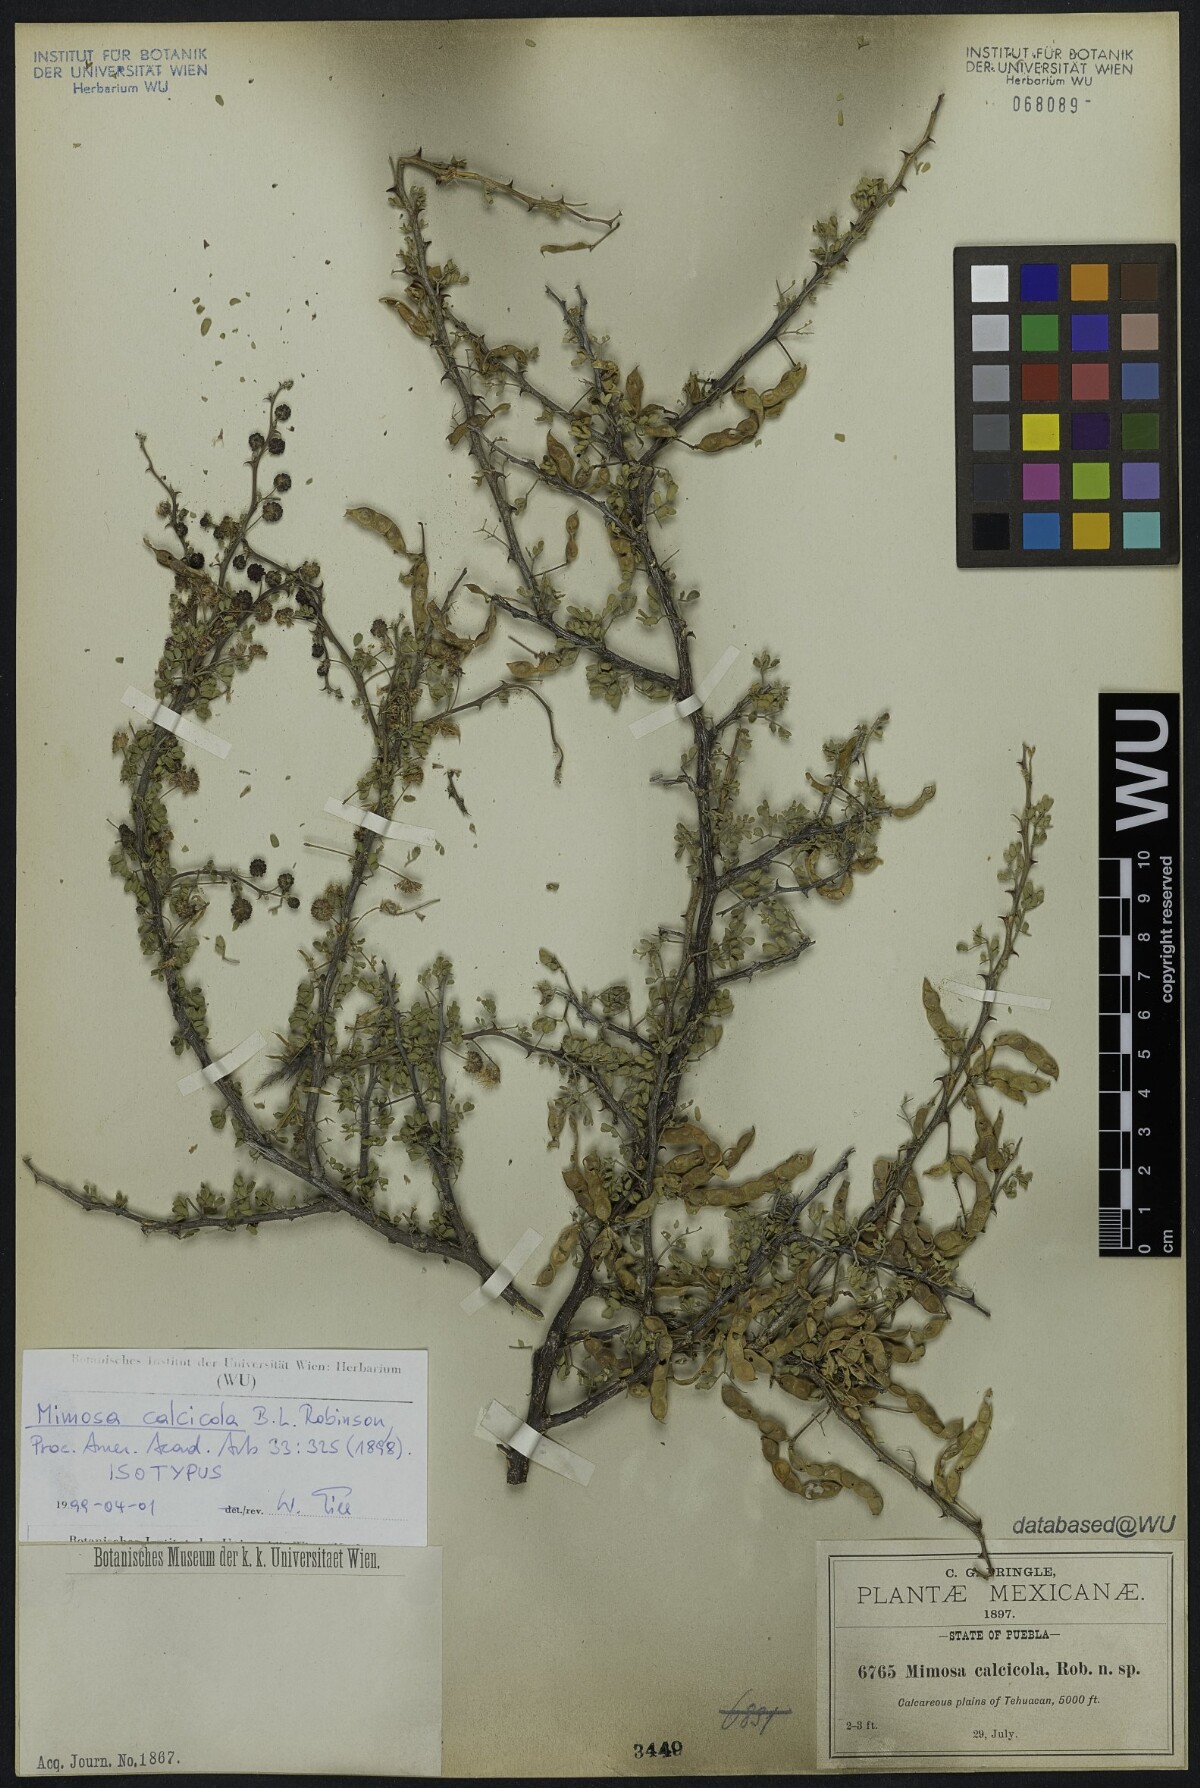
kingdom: Plantae
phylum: Tracheophyta
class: Magnoliopsida
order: Fabales
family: Fabaceae
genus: Mimosa
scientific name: Mimosa calcicola
